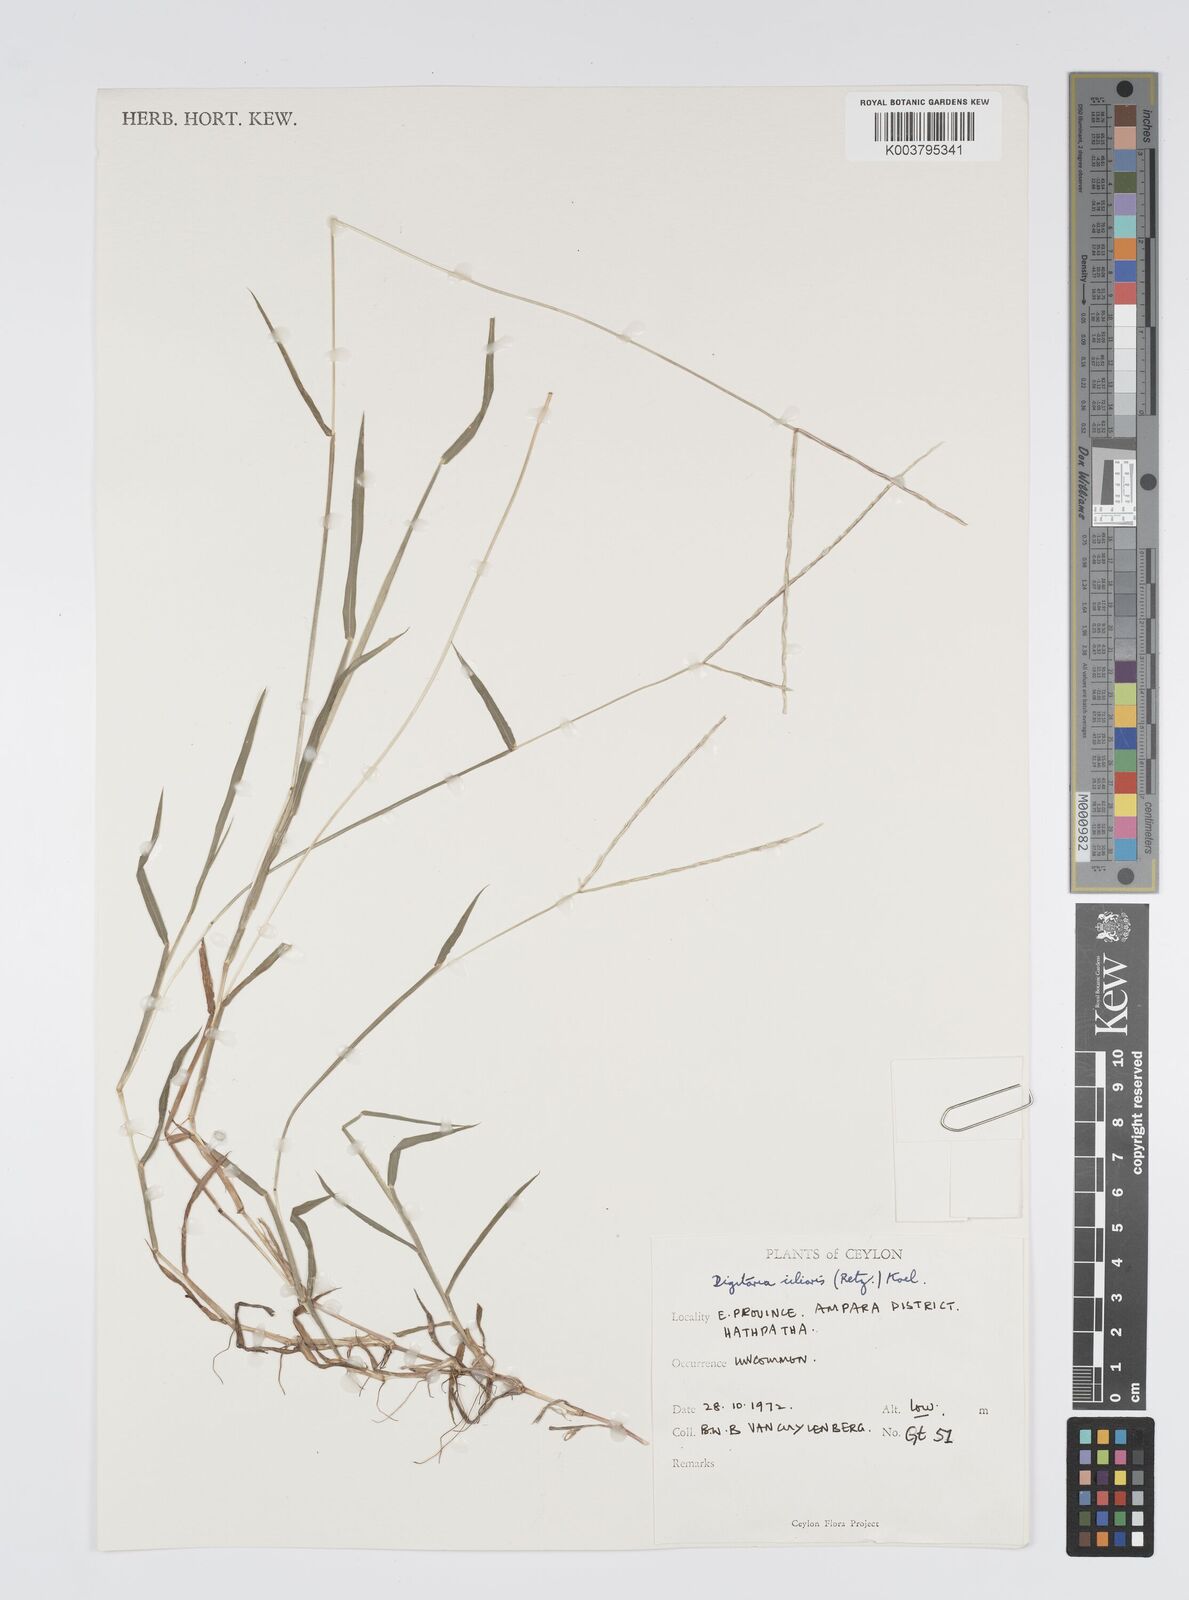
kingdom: Plantae
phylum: Tracheophyta
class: Liliopsida
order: Poales
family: Poaceae
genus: Digitaria
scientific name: Digitaria ciliaris
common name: Tropical finger-grass
